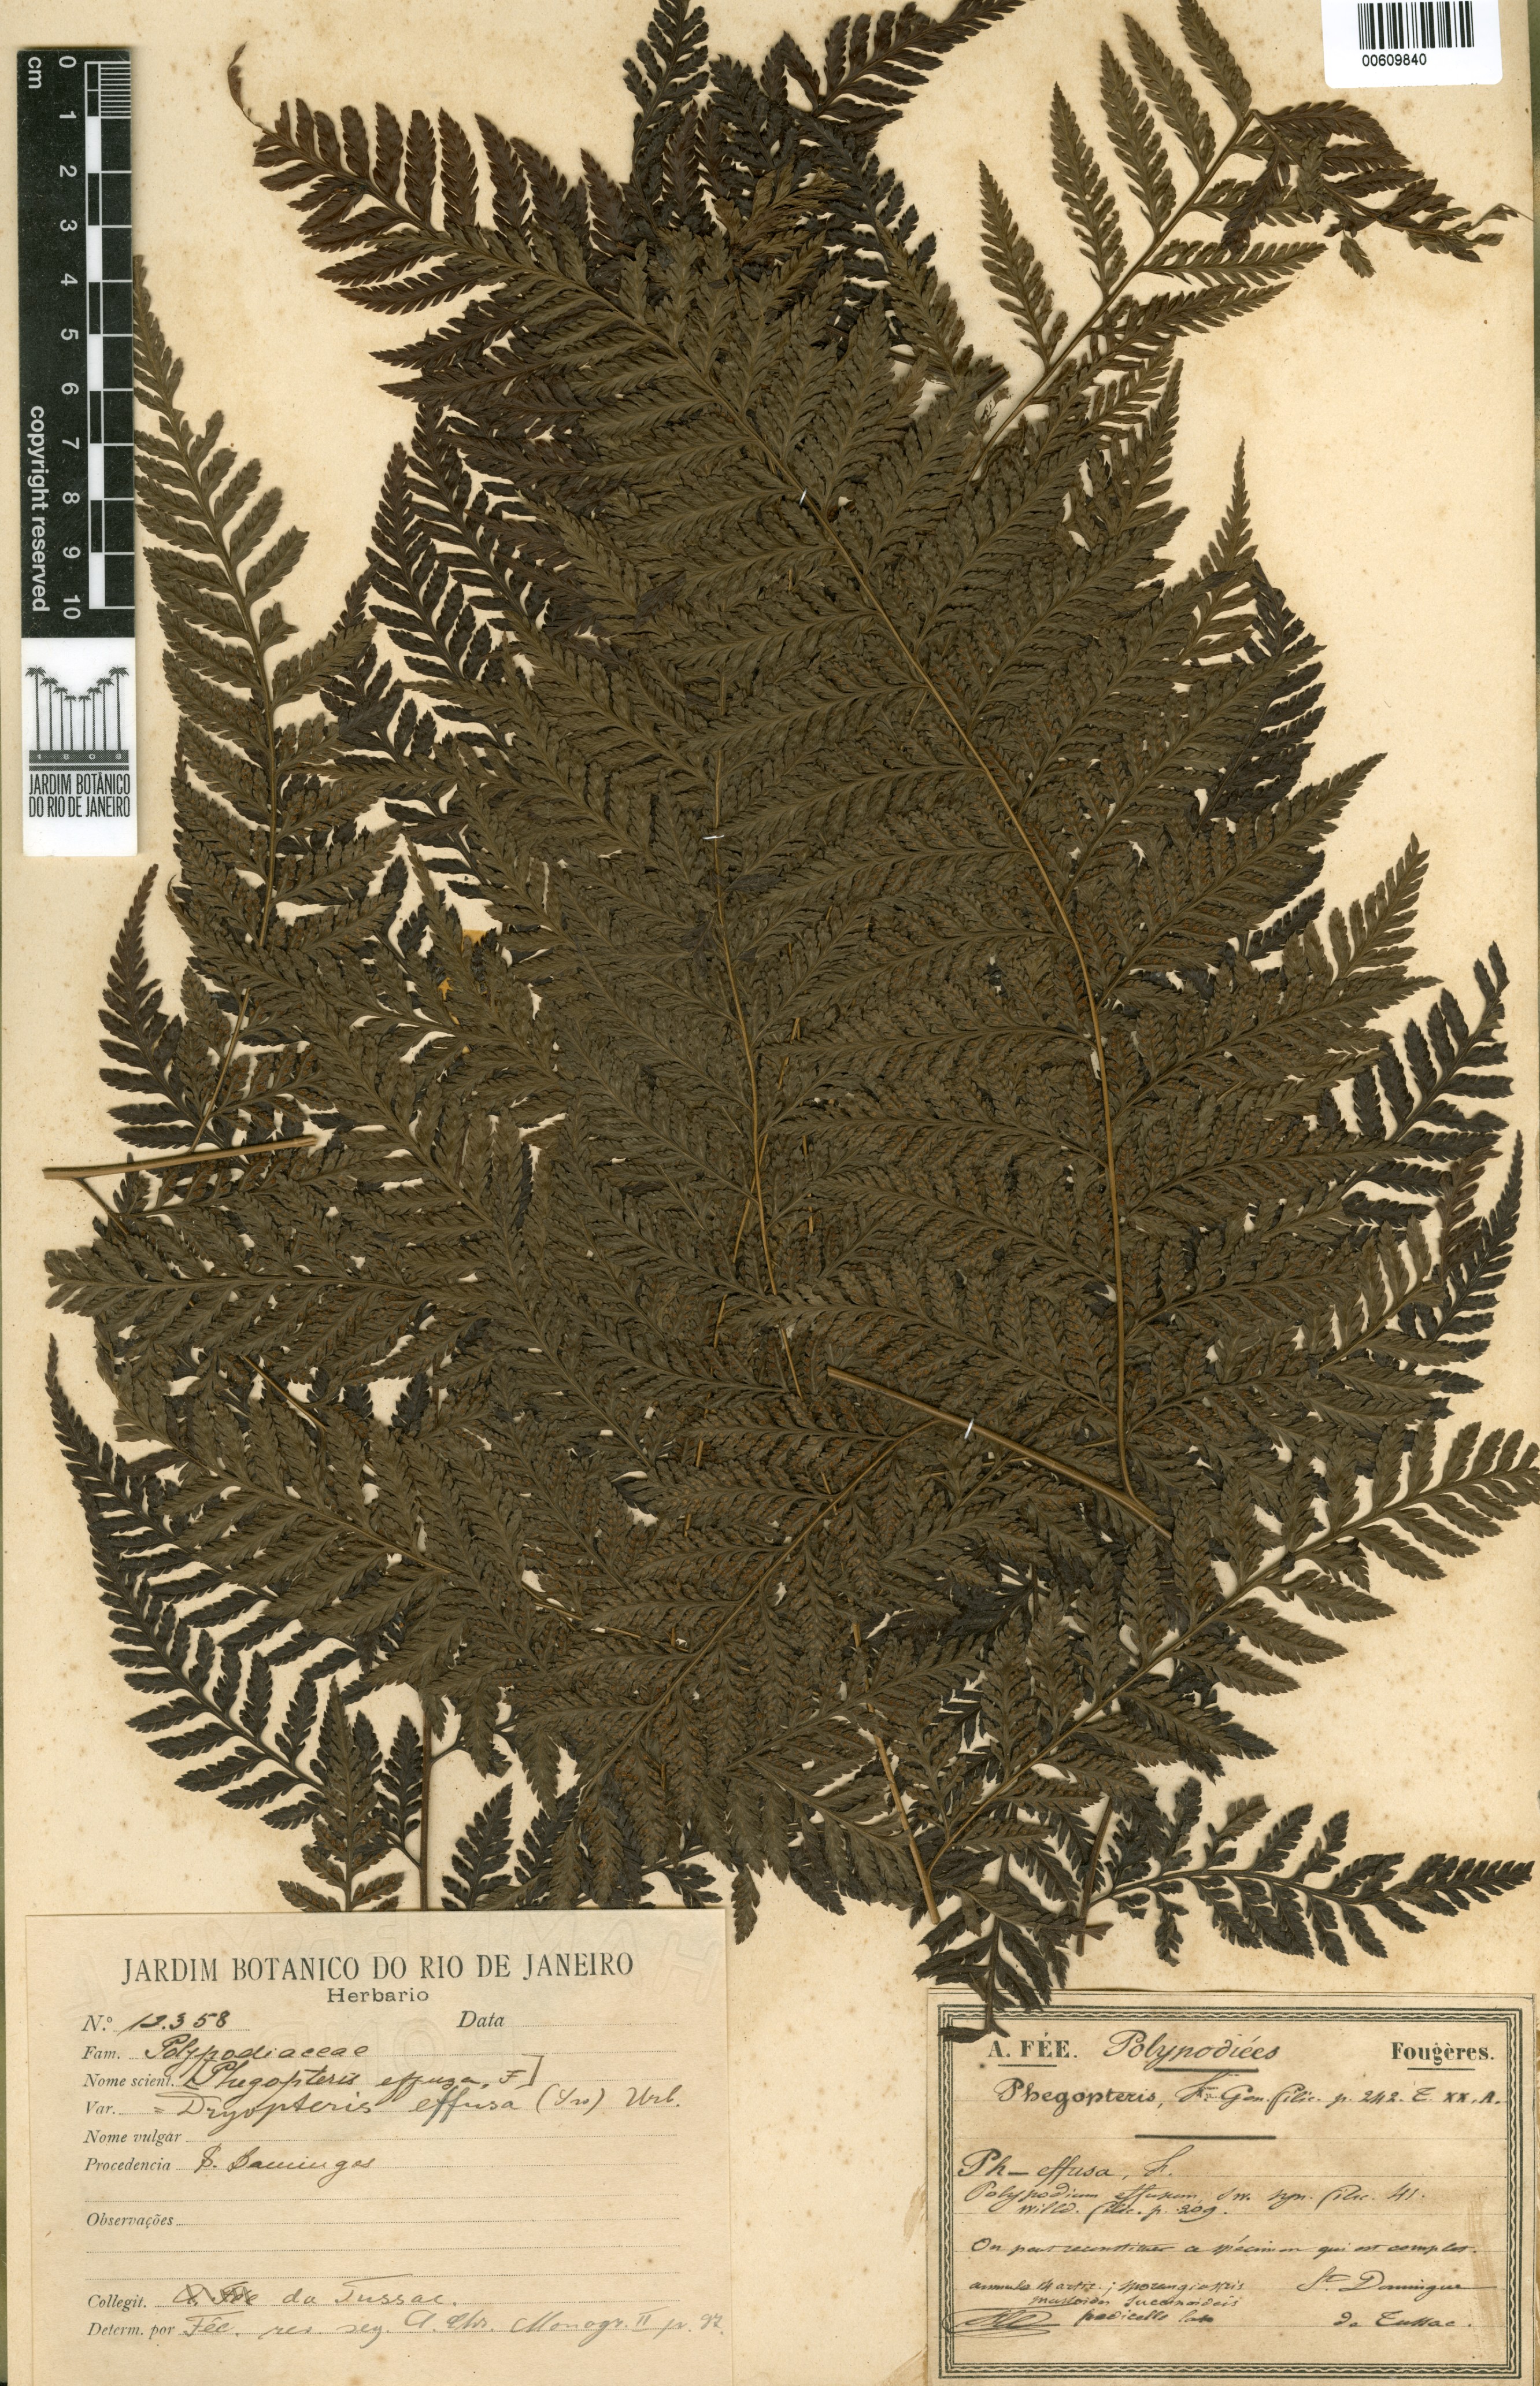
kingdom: Plantae
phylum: Tracheophyta
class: Polypodiopsida
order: Polypodiales
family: Dryopteridaceae
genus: Parapolystichum
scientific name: Parapolystichum effusum
